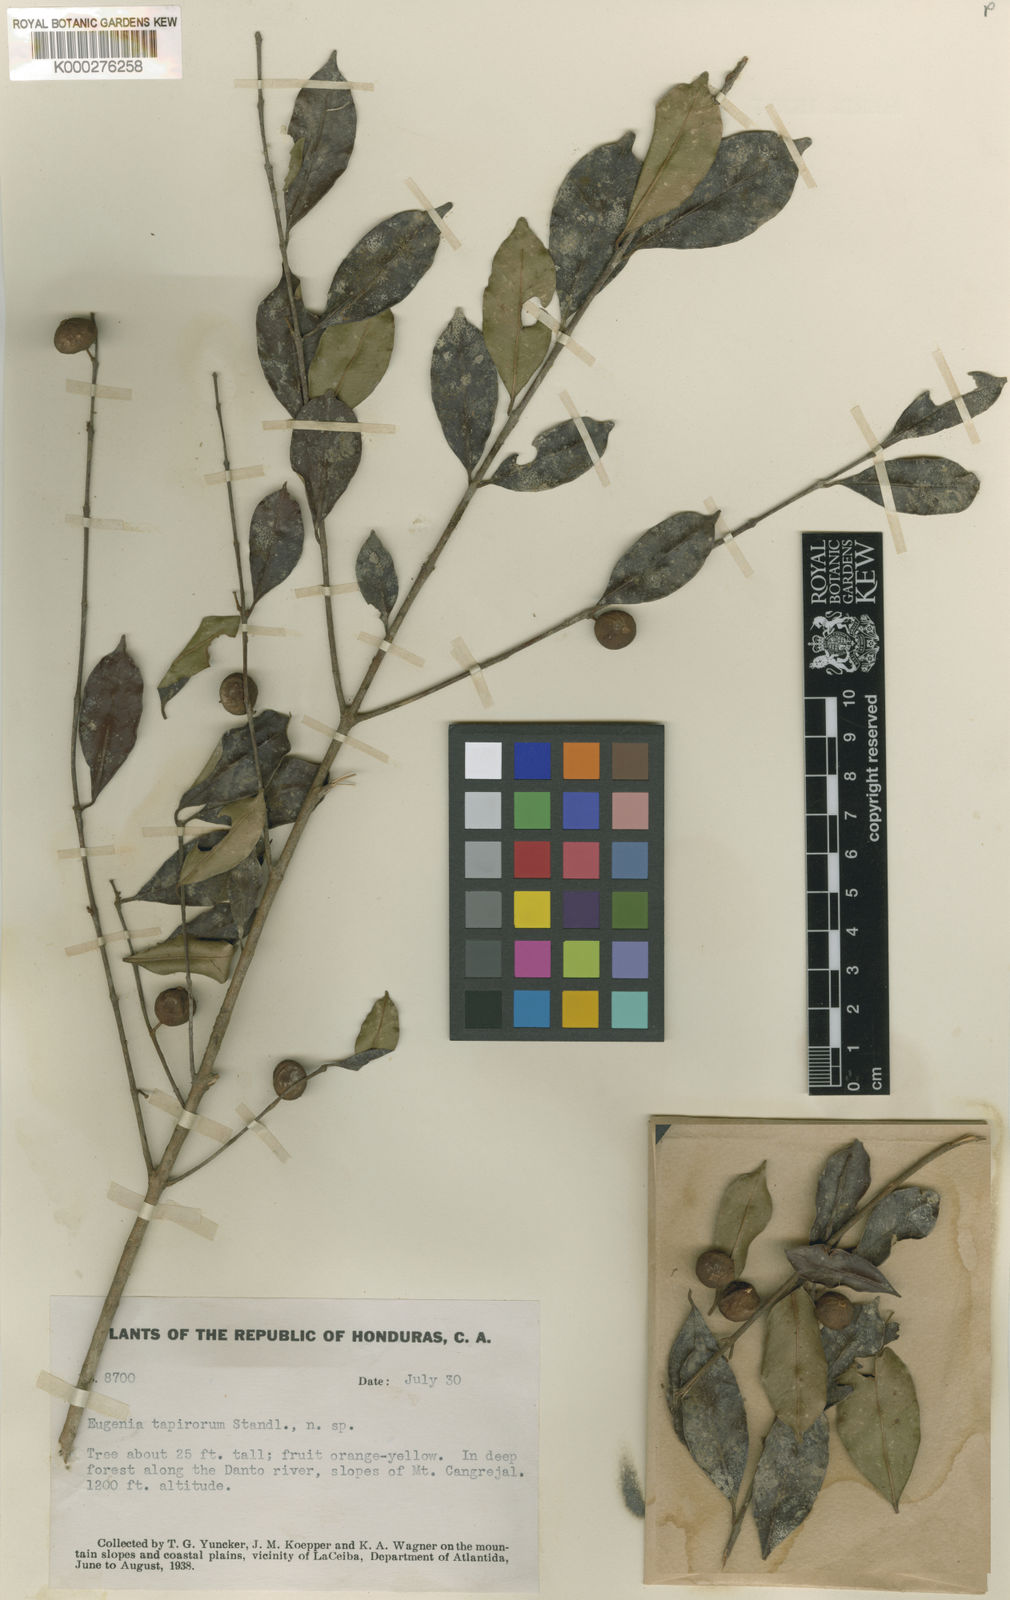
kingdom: Plantae
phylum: Tracheophyta
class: Magnoliopsida
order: Myrtales
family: Myrtaceae
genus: Eugenia
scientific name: Eugenia tapirorum
